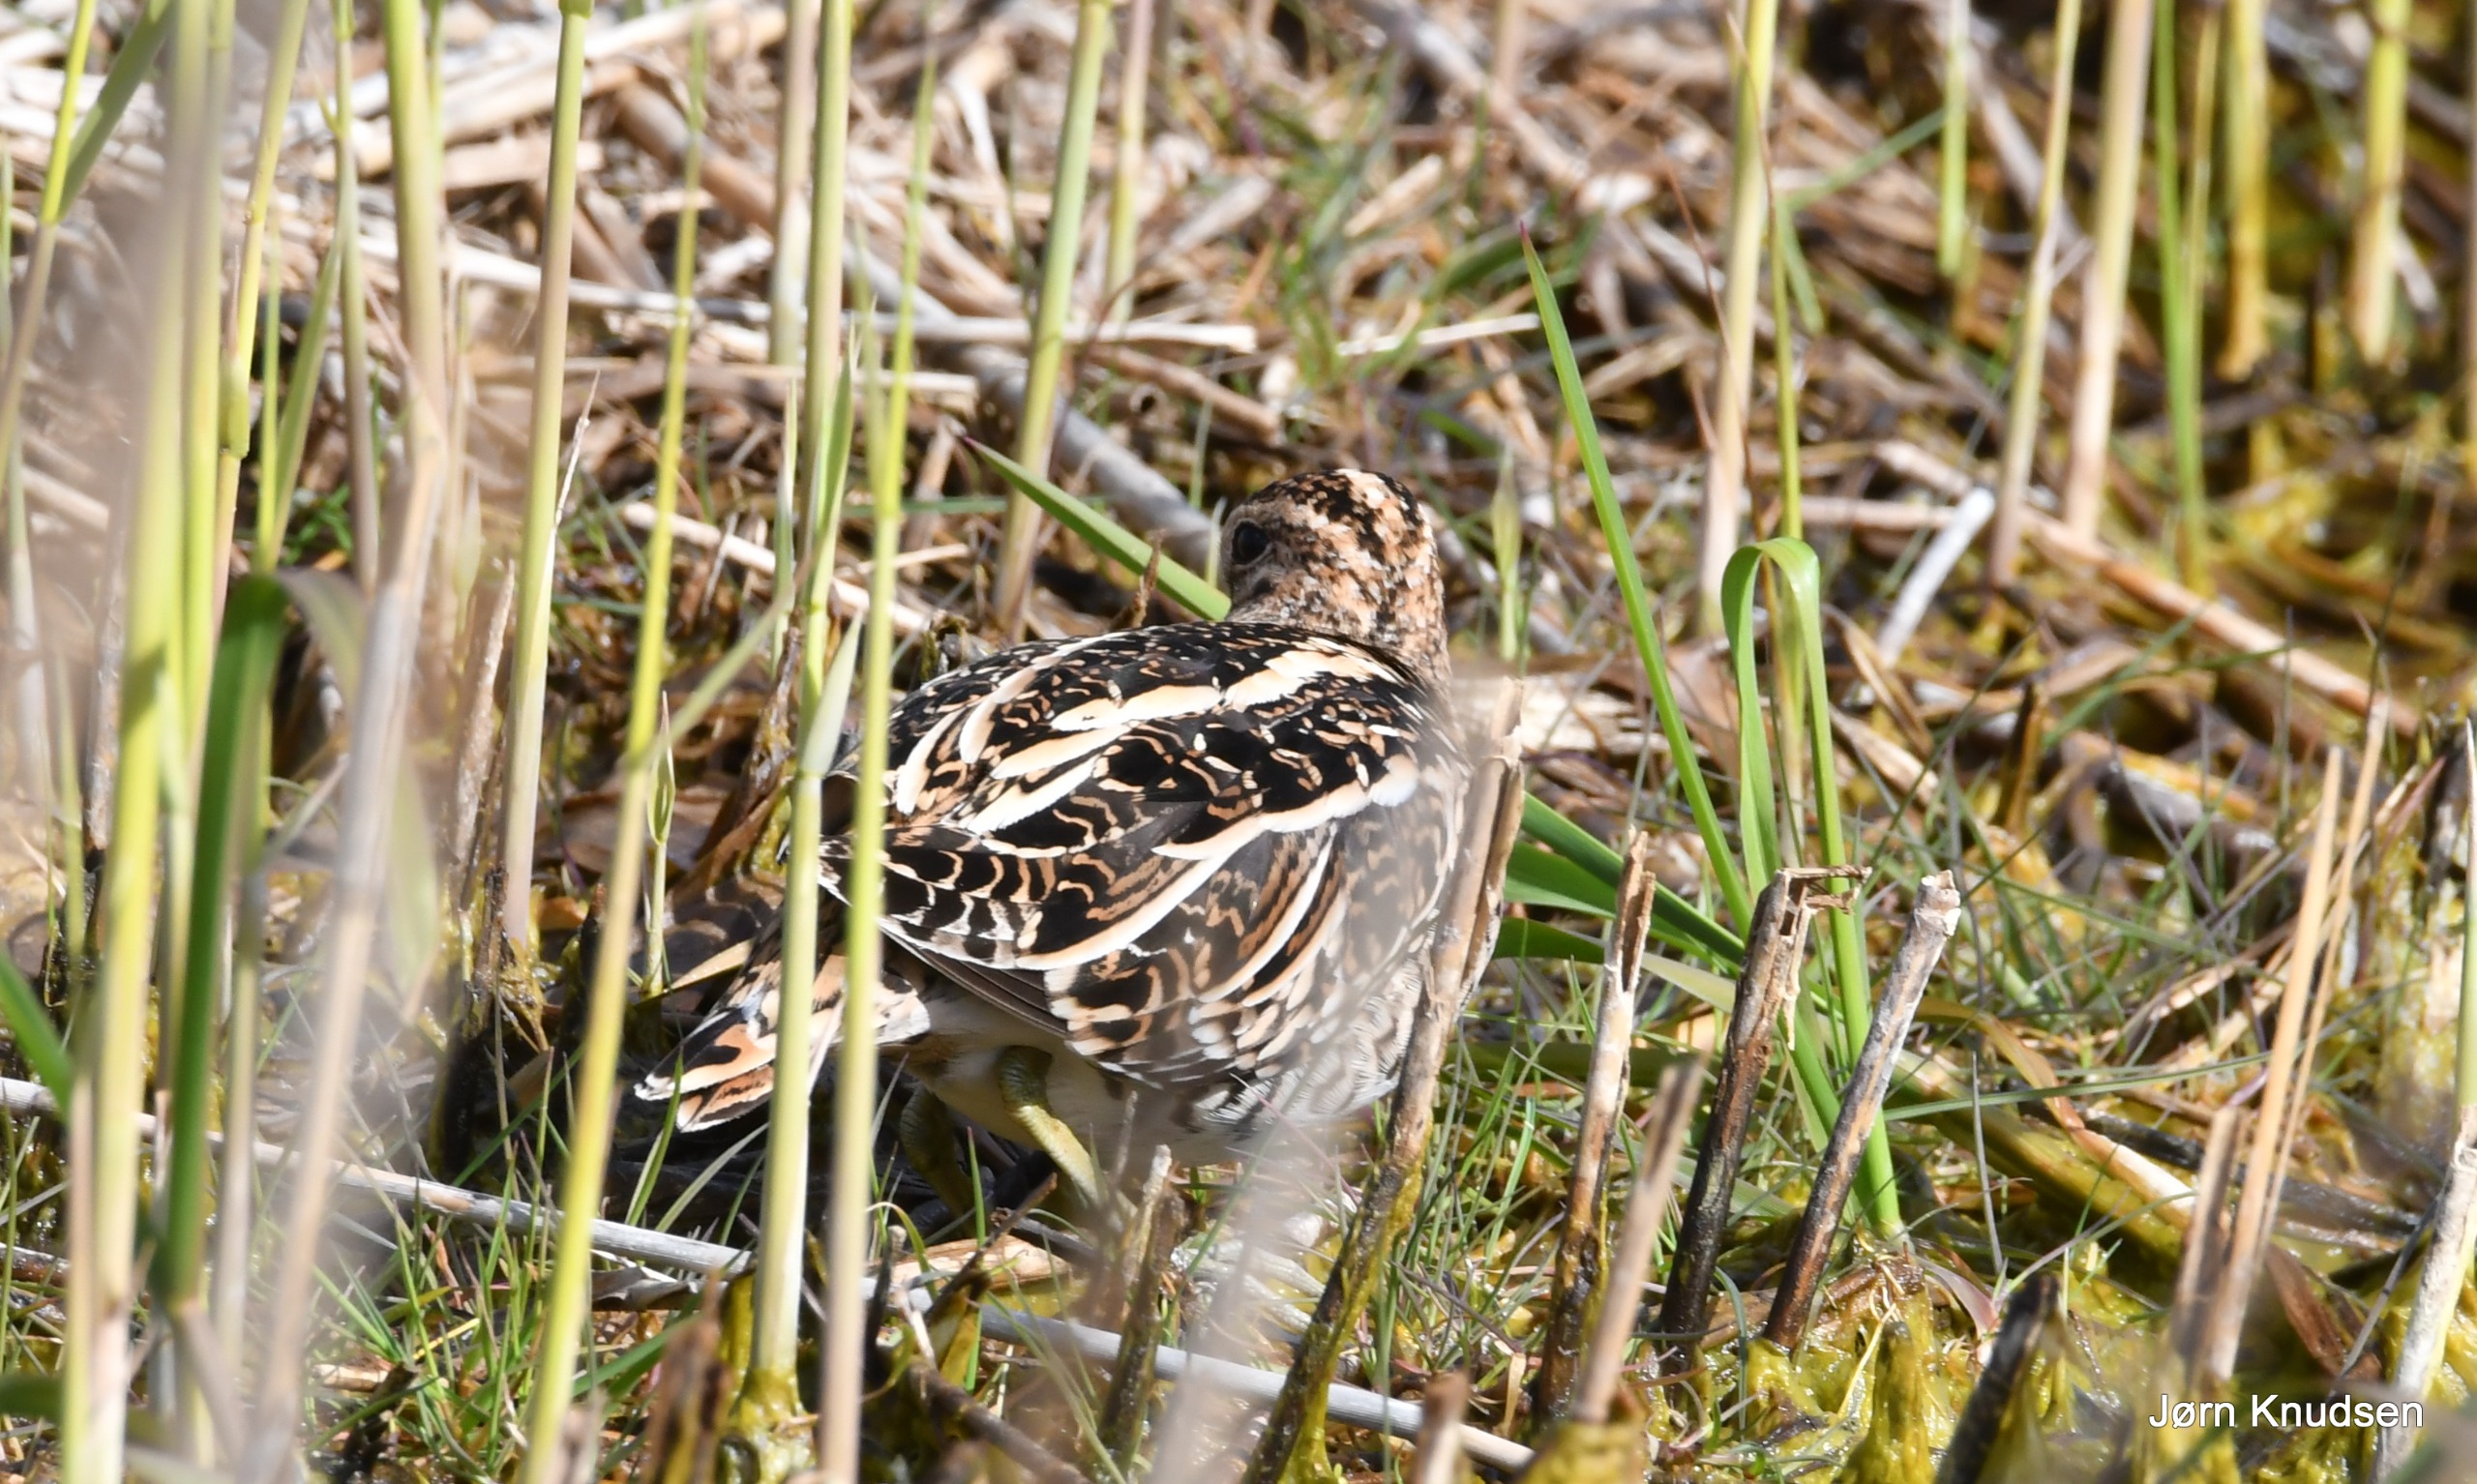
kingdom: Animalia
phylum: Chordata
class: Aves
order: Charadriiformes
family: Scolopacidae
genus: Gallinago
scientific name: Gallinago gallinago
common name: Dobbeltbekkasin
